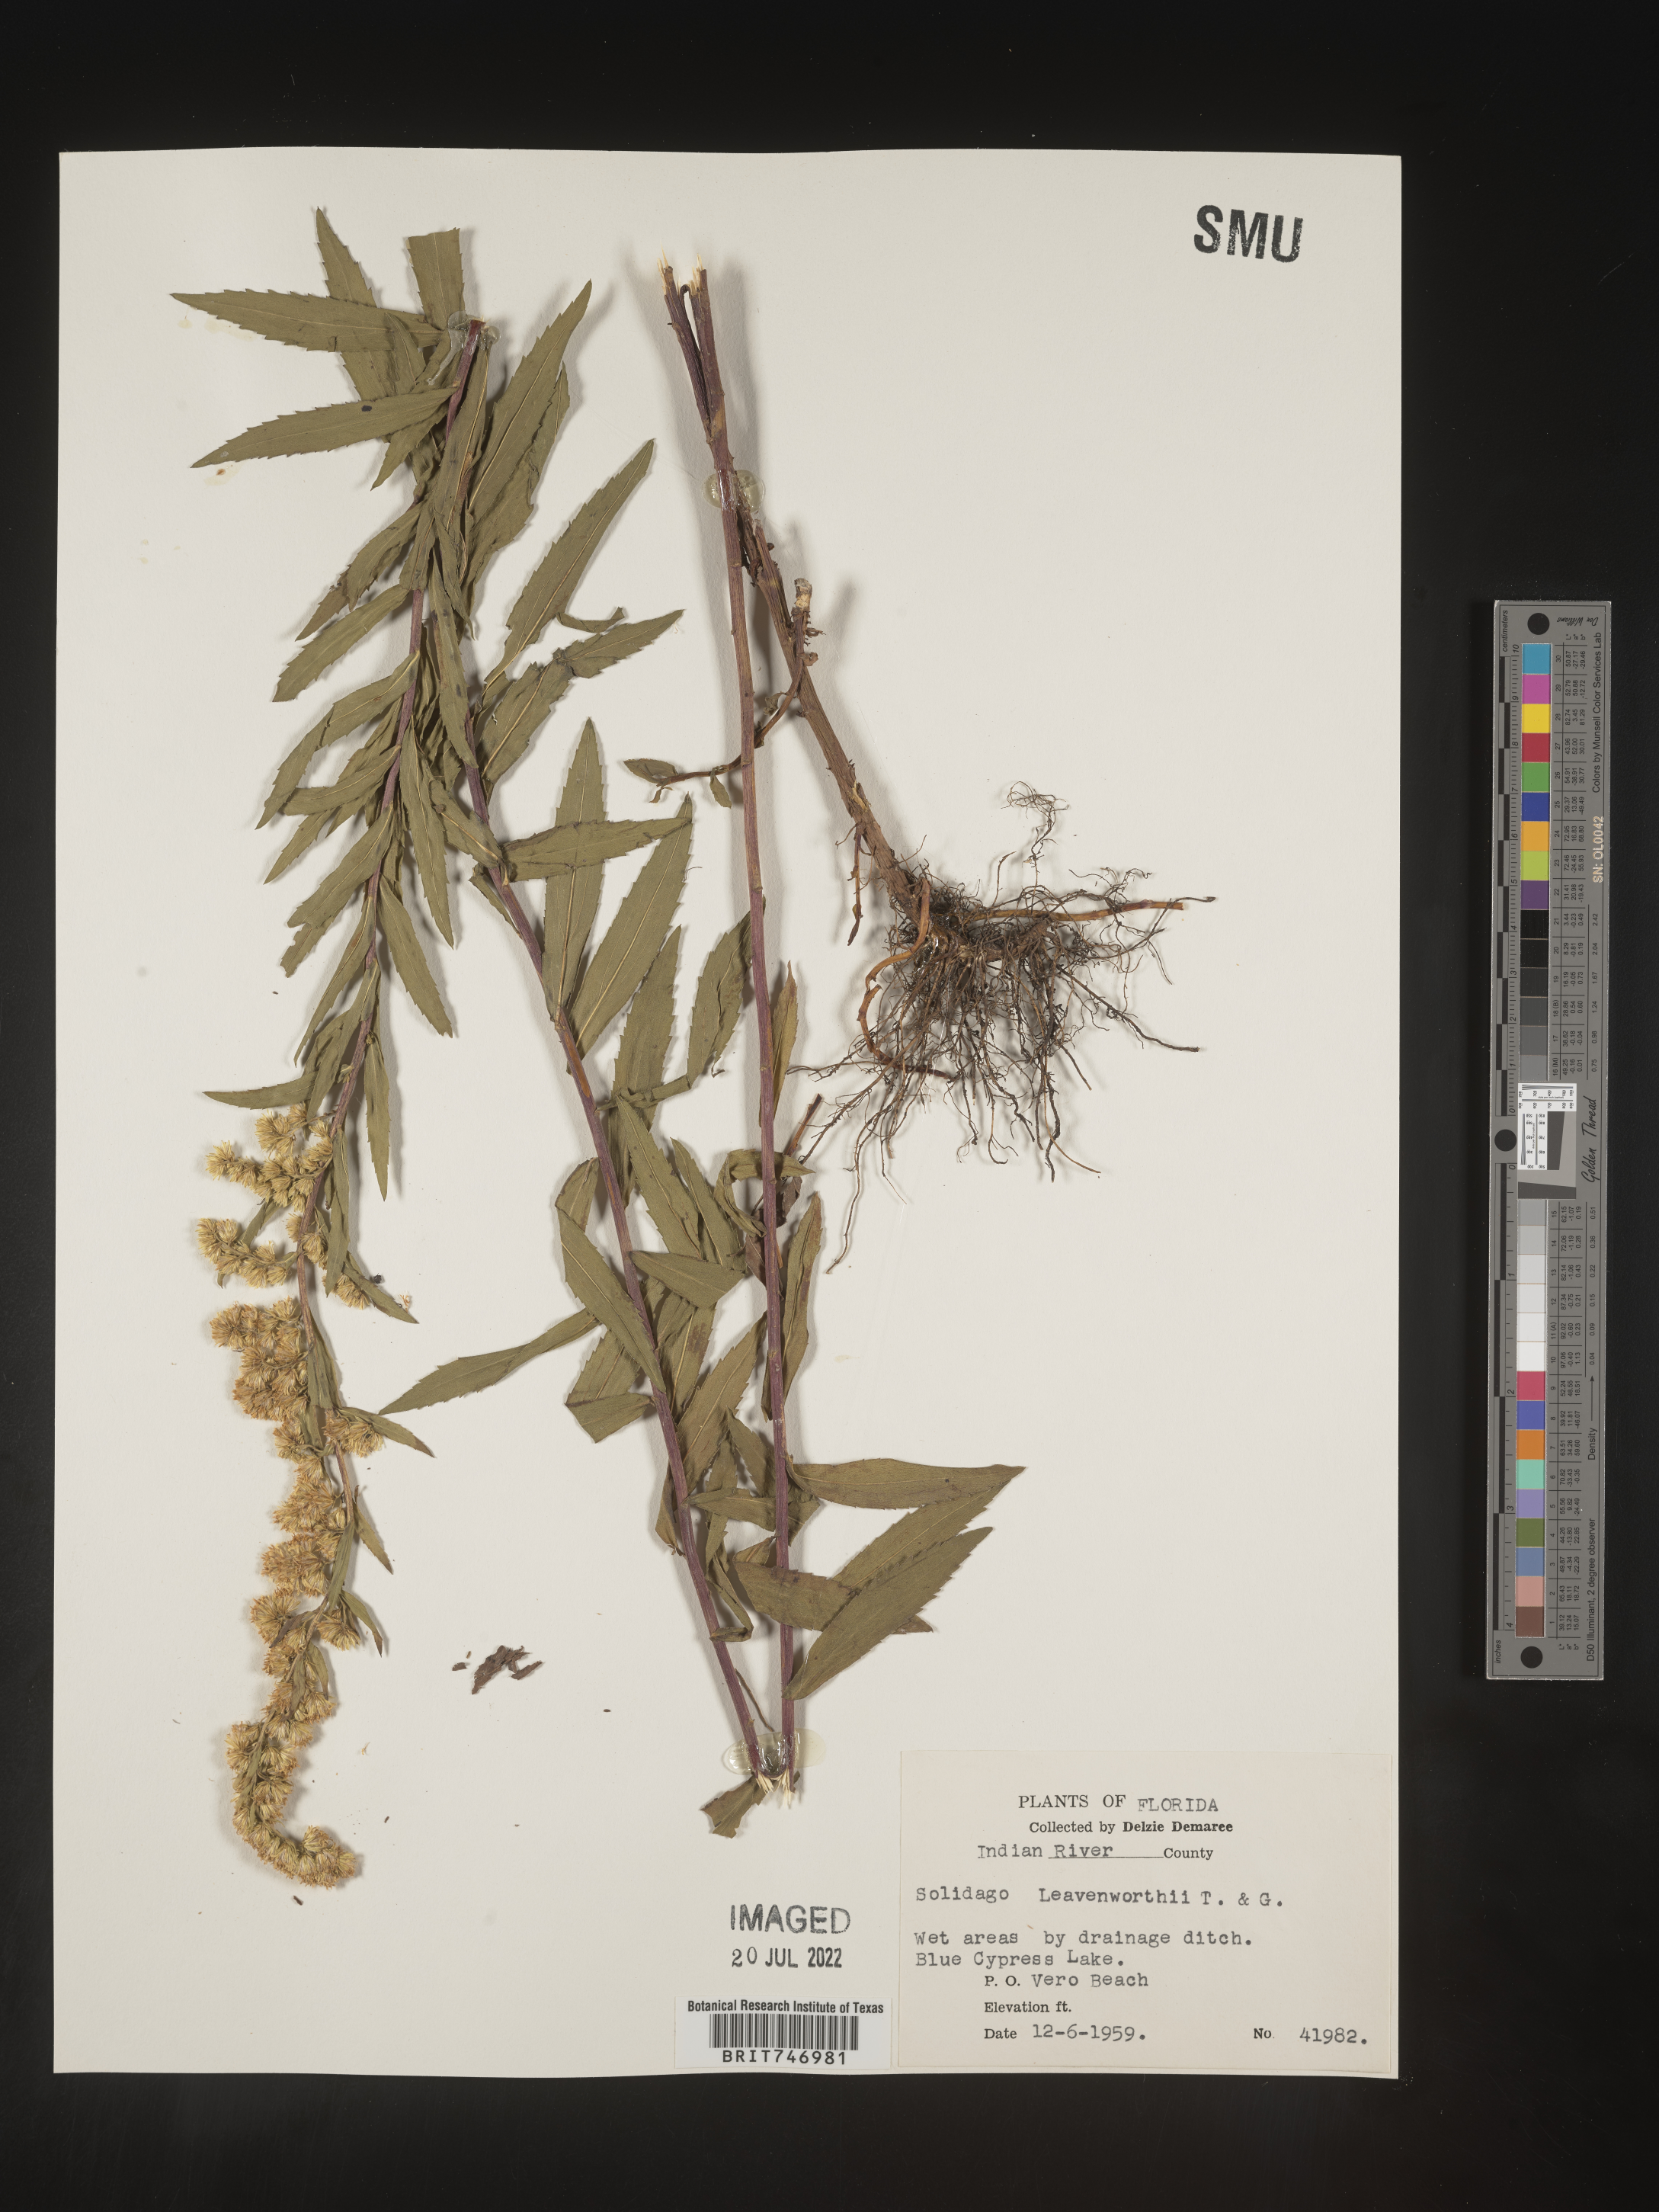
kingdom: Plantae
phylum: Tracheophyta
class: Magnoliopsida
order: Asterales
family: Asteraceae
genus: Solidago
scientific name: Solidago leavenworthii
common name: Leavenworth's goldenrod
